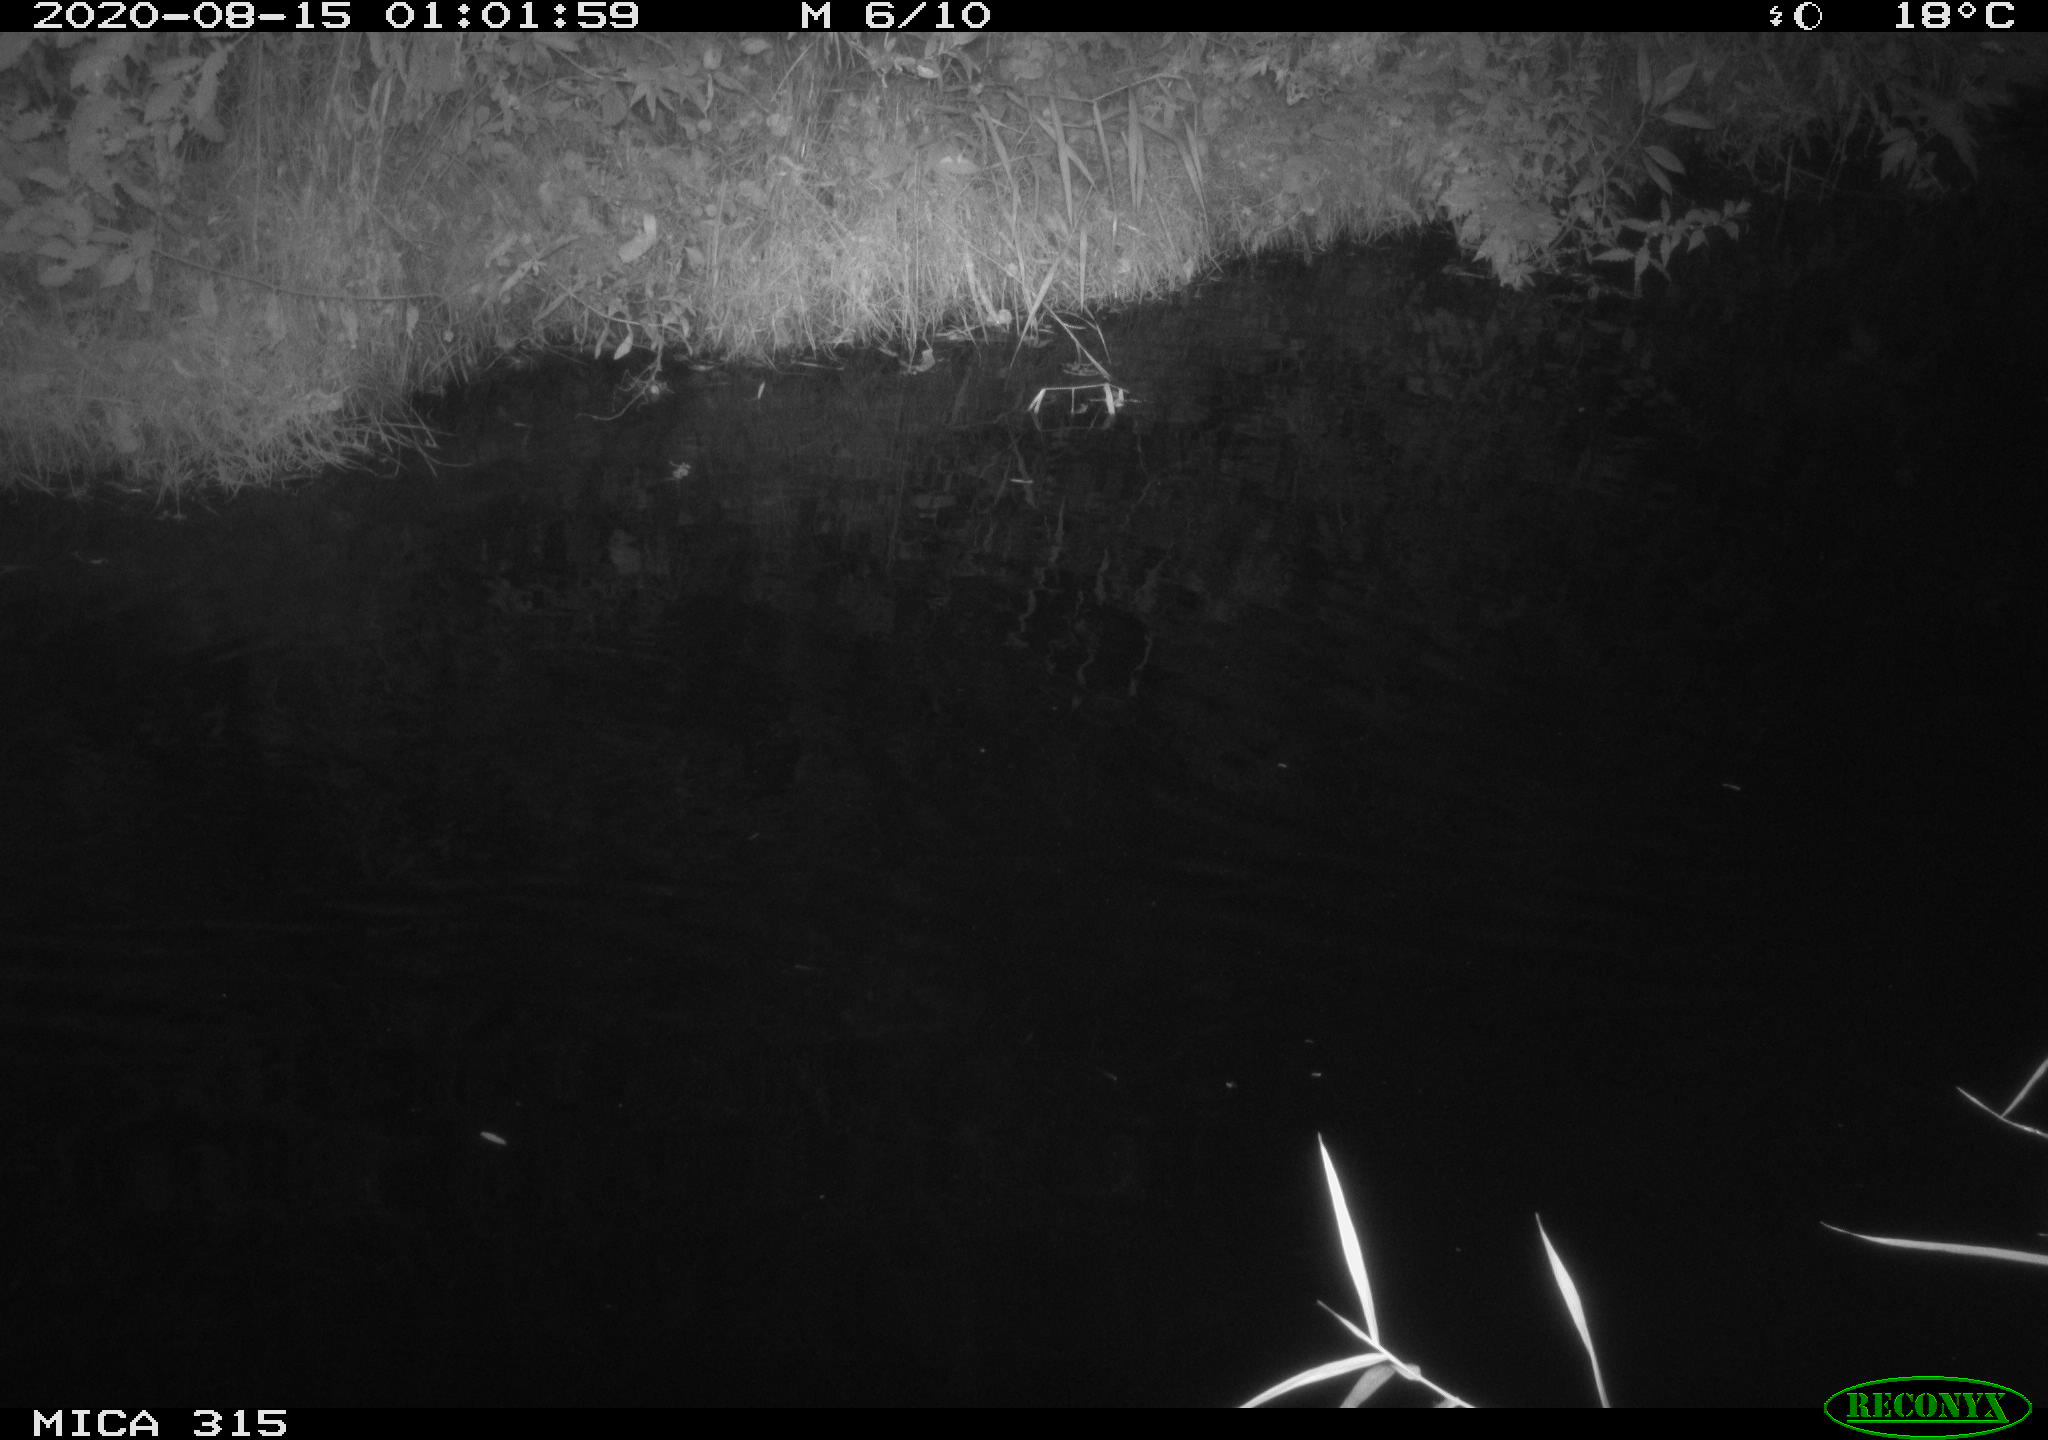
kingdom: Animalia
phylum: Chordata
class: Aves
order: Anseriformes
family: Anatidae
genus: Anas
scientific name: Anas platyrhynchos
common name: Mallard
